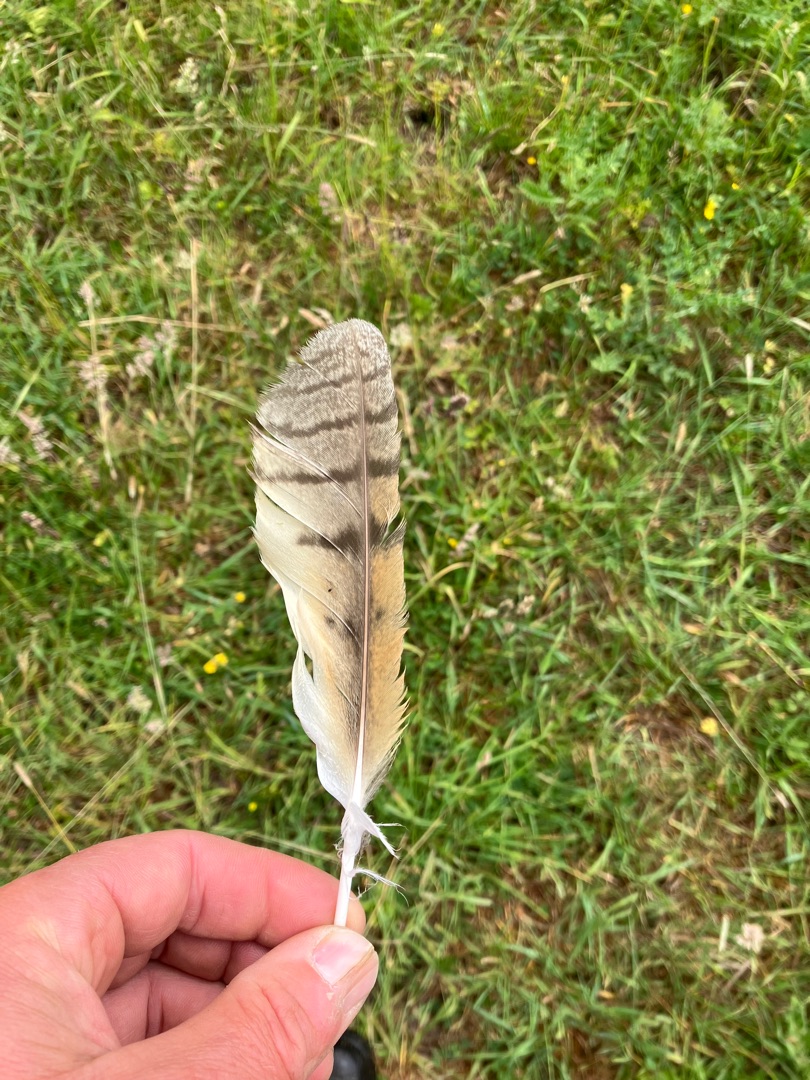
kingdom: Animalia
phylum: Chordata
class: Aves
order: Strigiformes
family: Strigidae
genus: Asio
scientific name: Asio otus
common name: Skovhornugle
